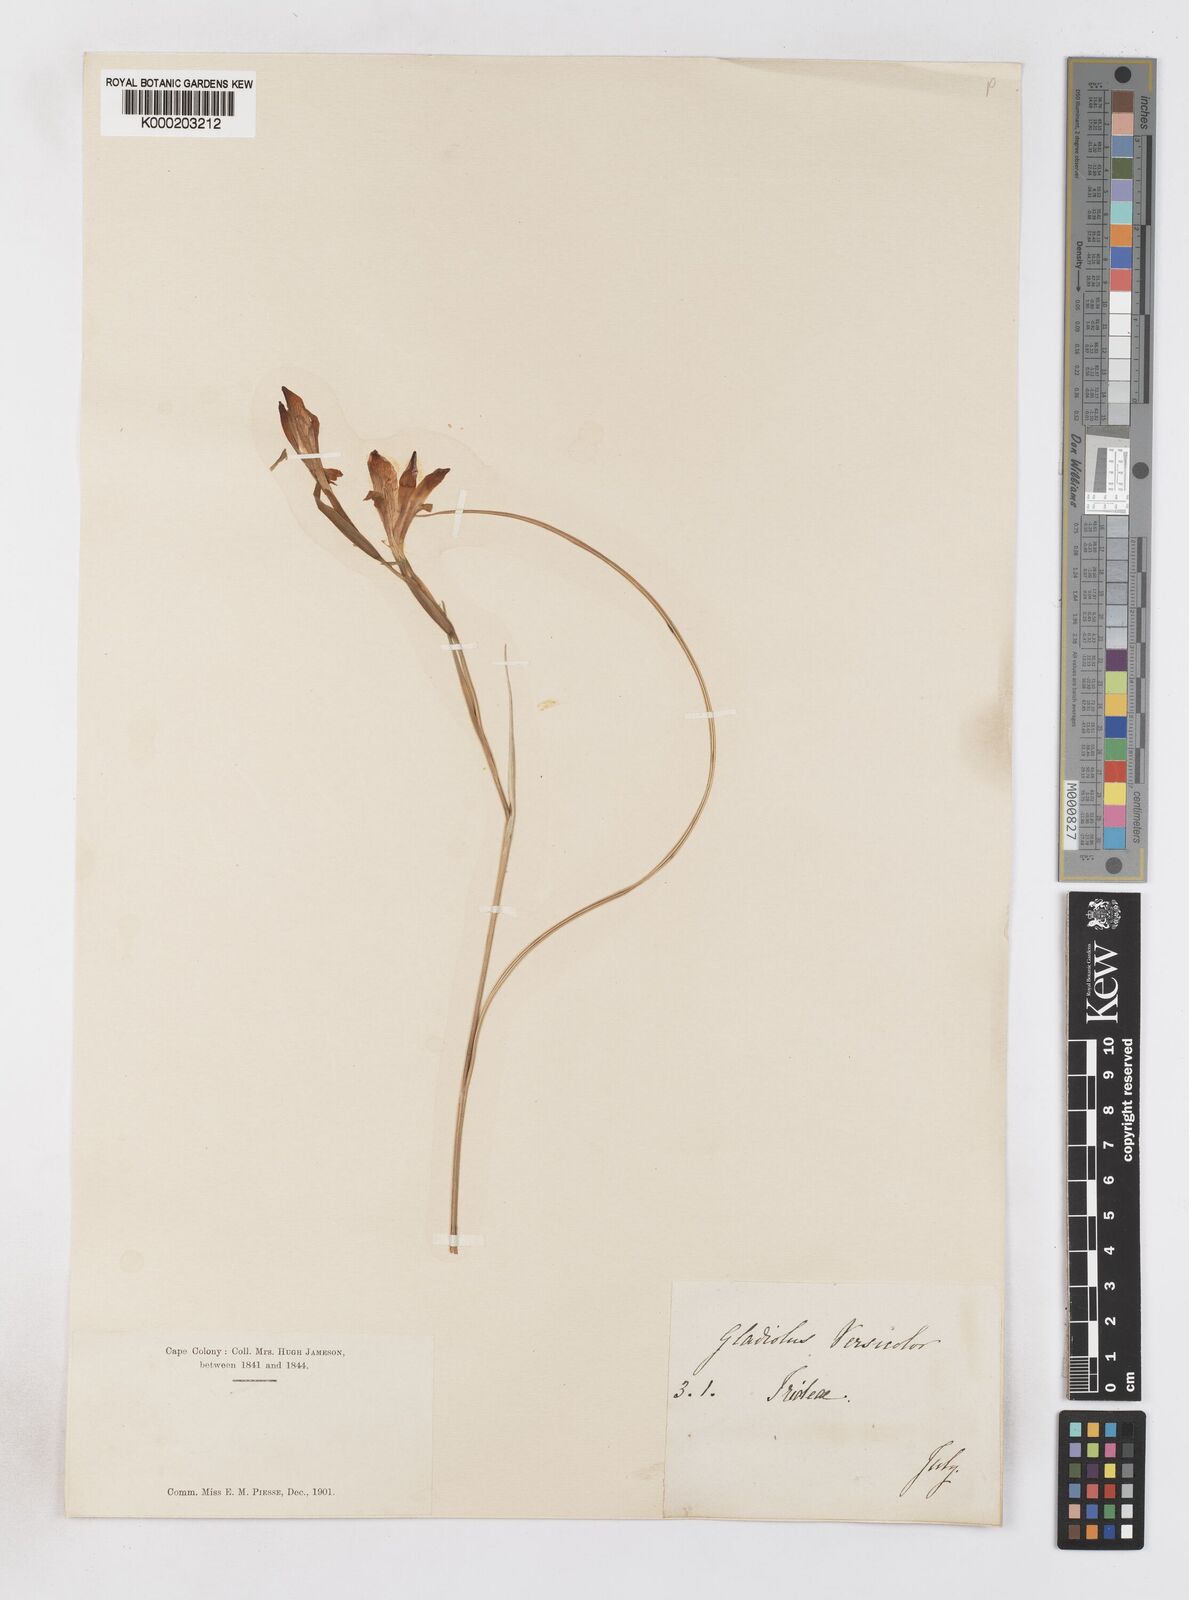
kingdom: Plantae
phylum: Tracheophyta
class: Liliopsida
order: Asparagales
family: Iridaceae
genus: Gladiolus
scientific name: Gladiolus hyalinus
